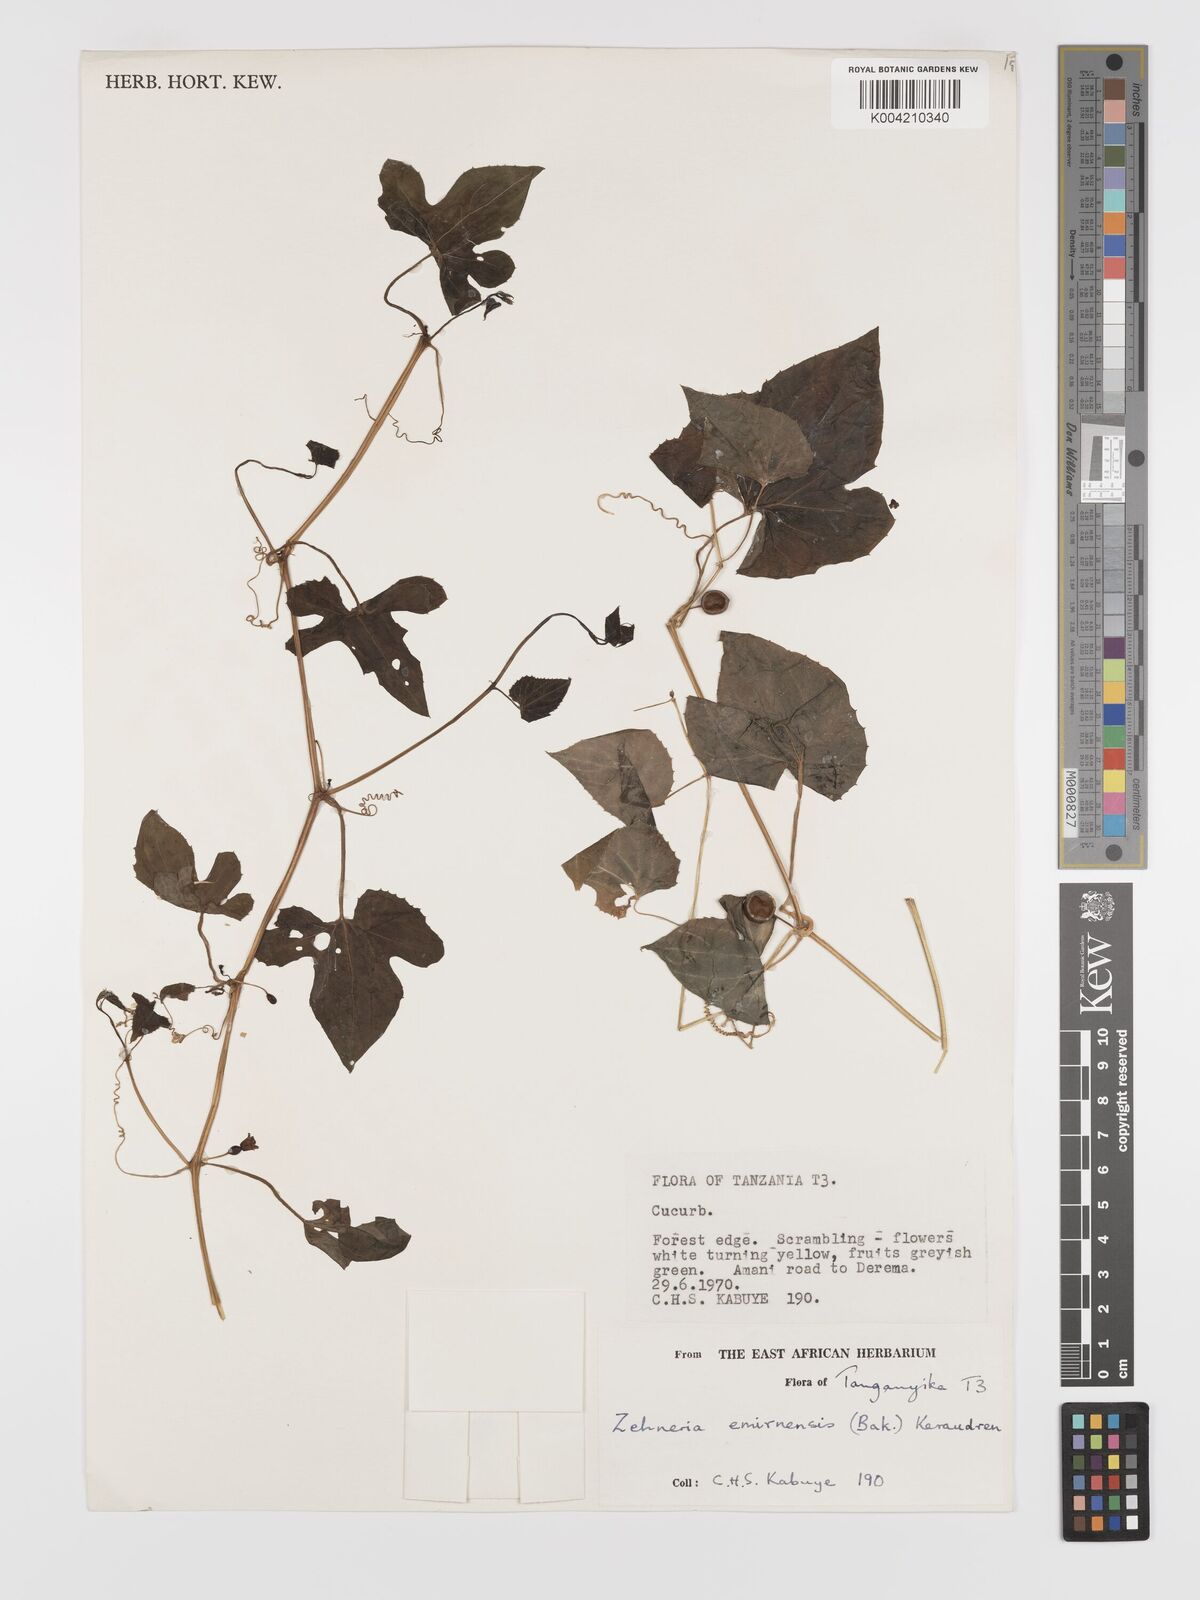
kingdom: Plantae
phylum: Tracheophyta
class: Magnoliopsida
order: Cucurbitales
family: Cucurbitaceae
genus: Zehneria
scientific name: Zehneria emirnensis
